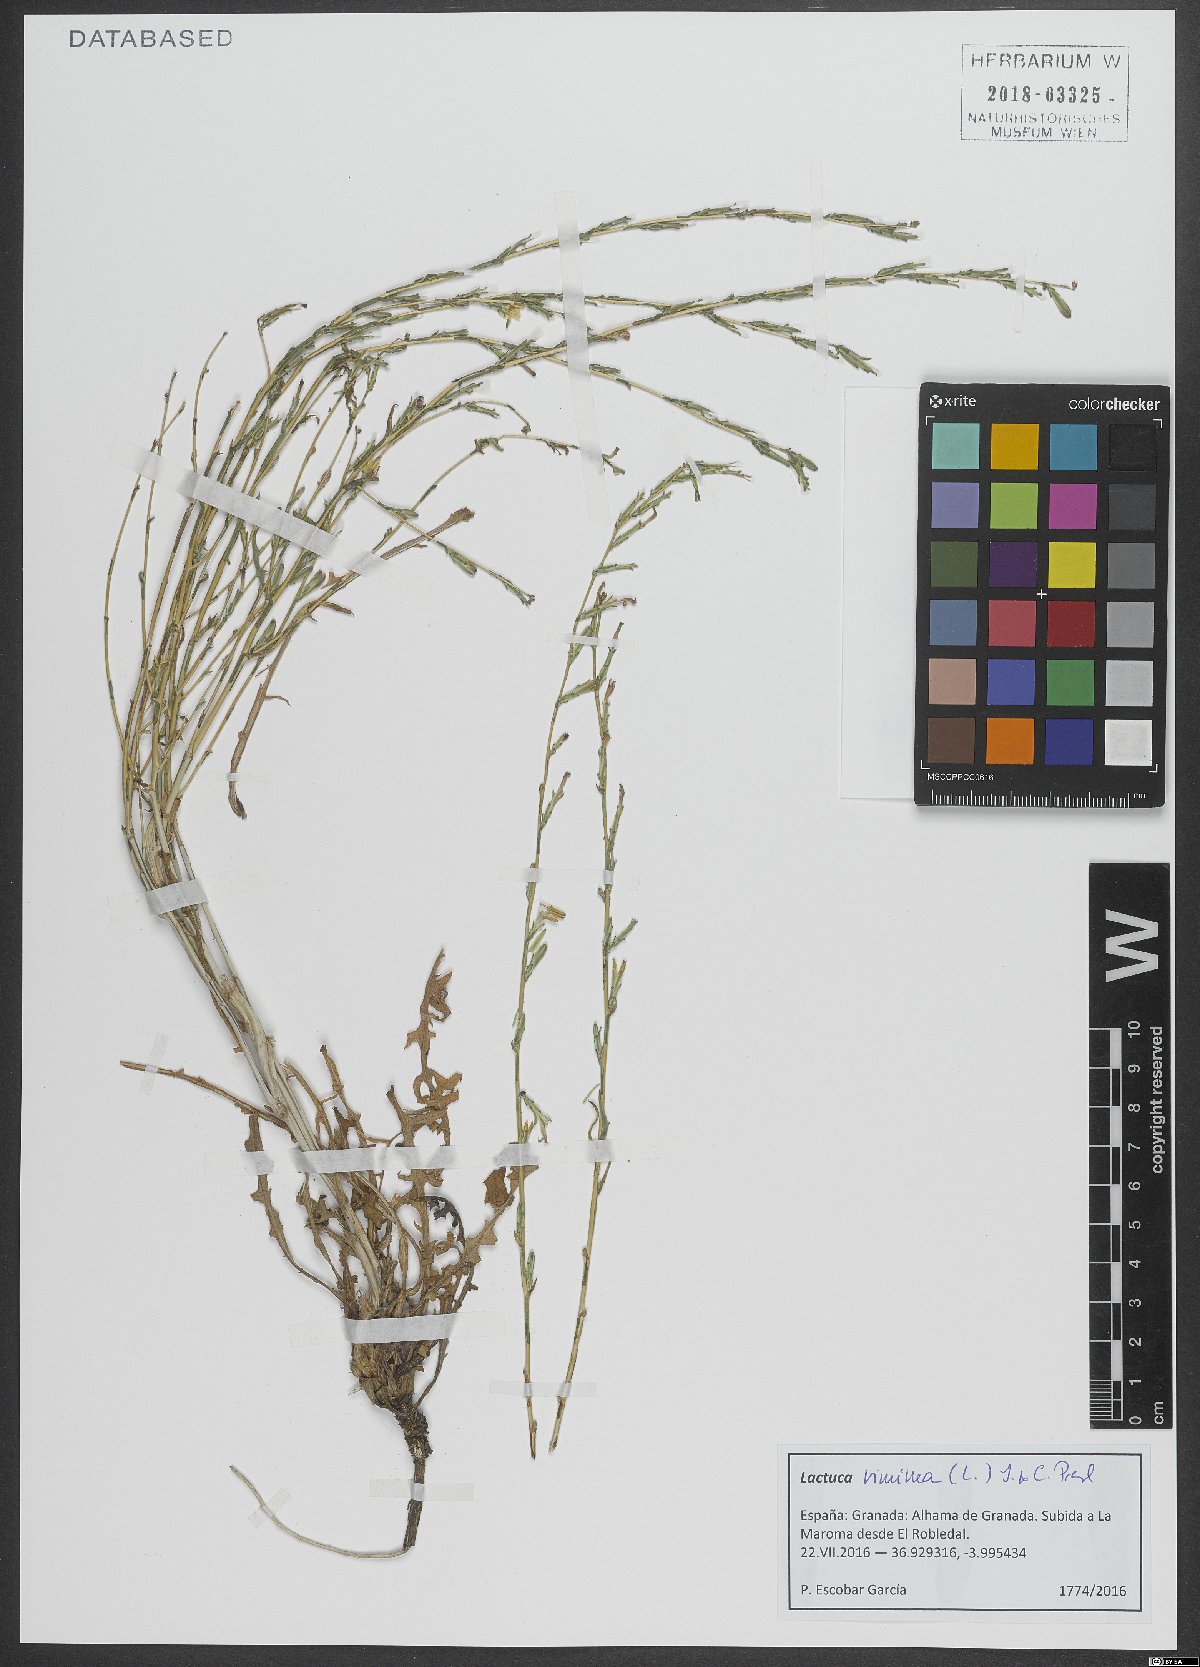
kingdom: Plantae
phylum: Tracheophyta
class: Magnoliopsida
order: Asterales
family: Asteraceae
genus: Lactuca
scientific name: Lactuca viminea
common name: Pliant lettuce
